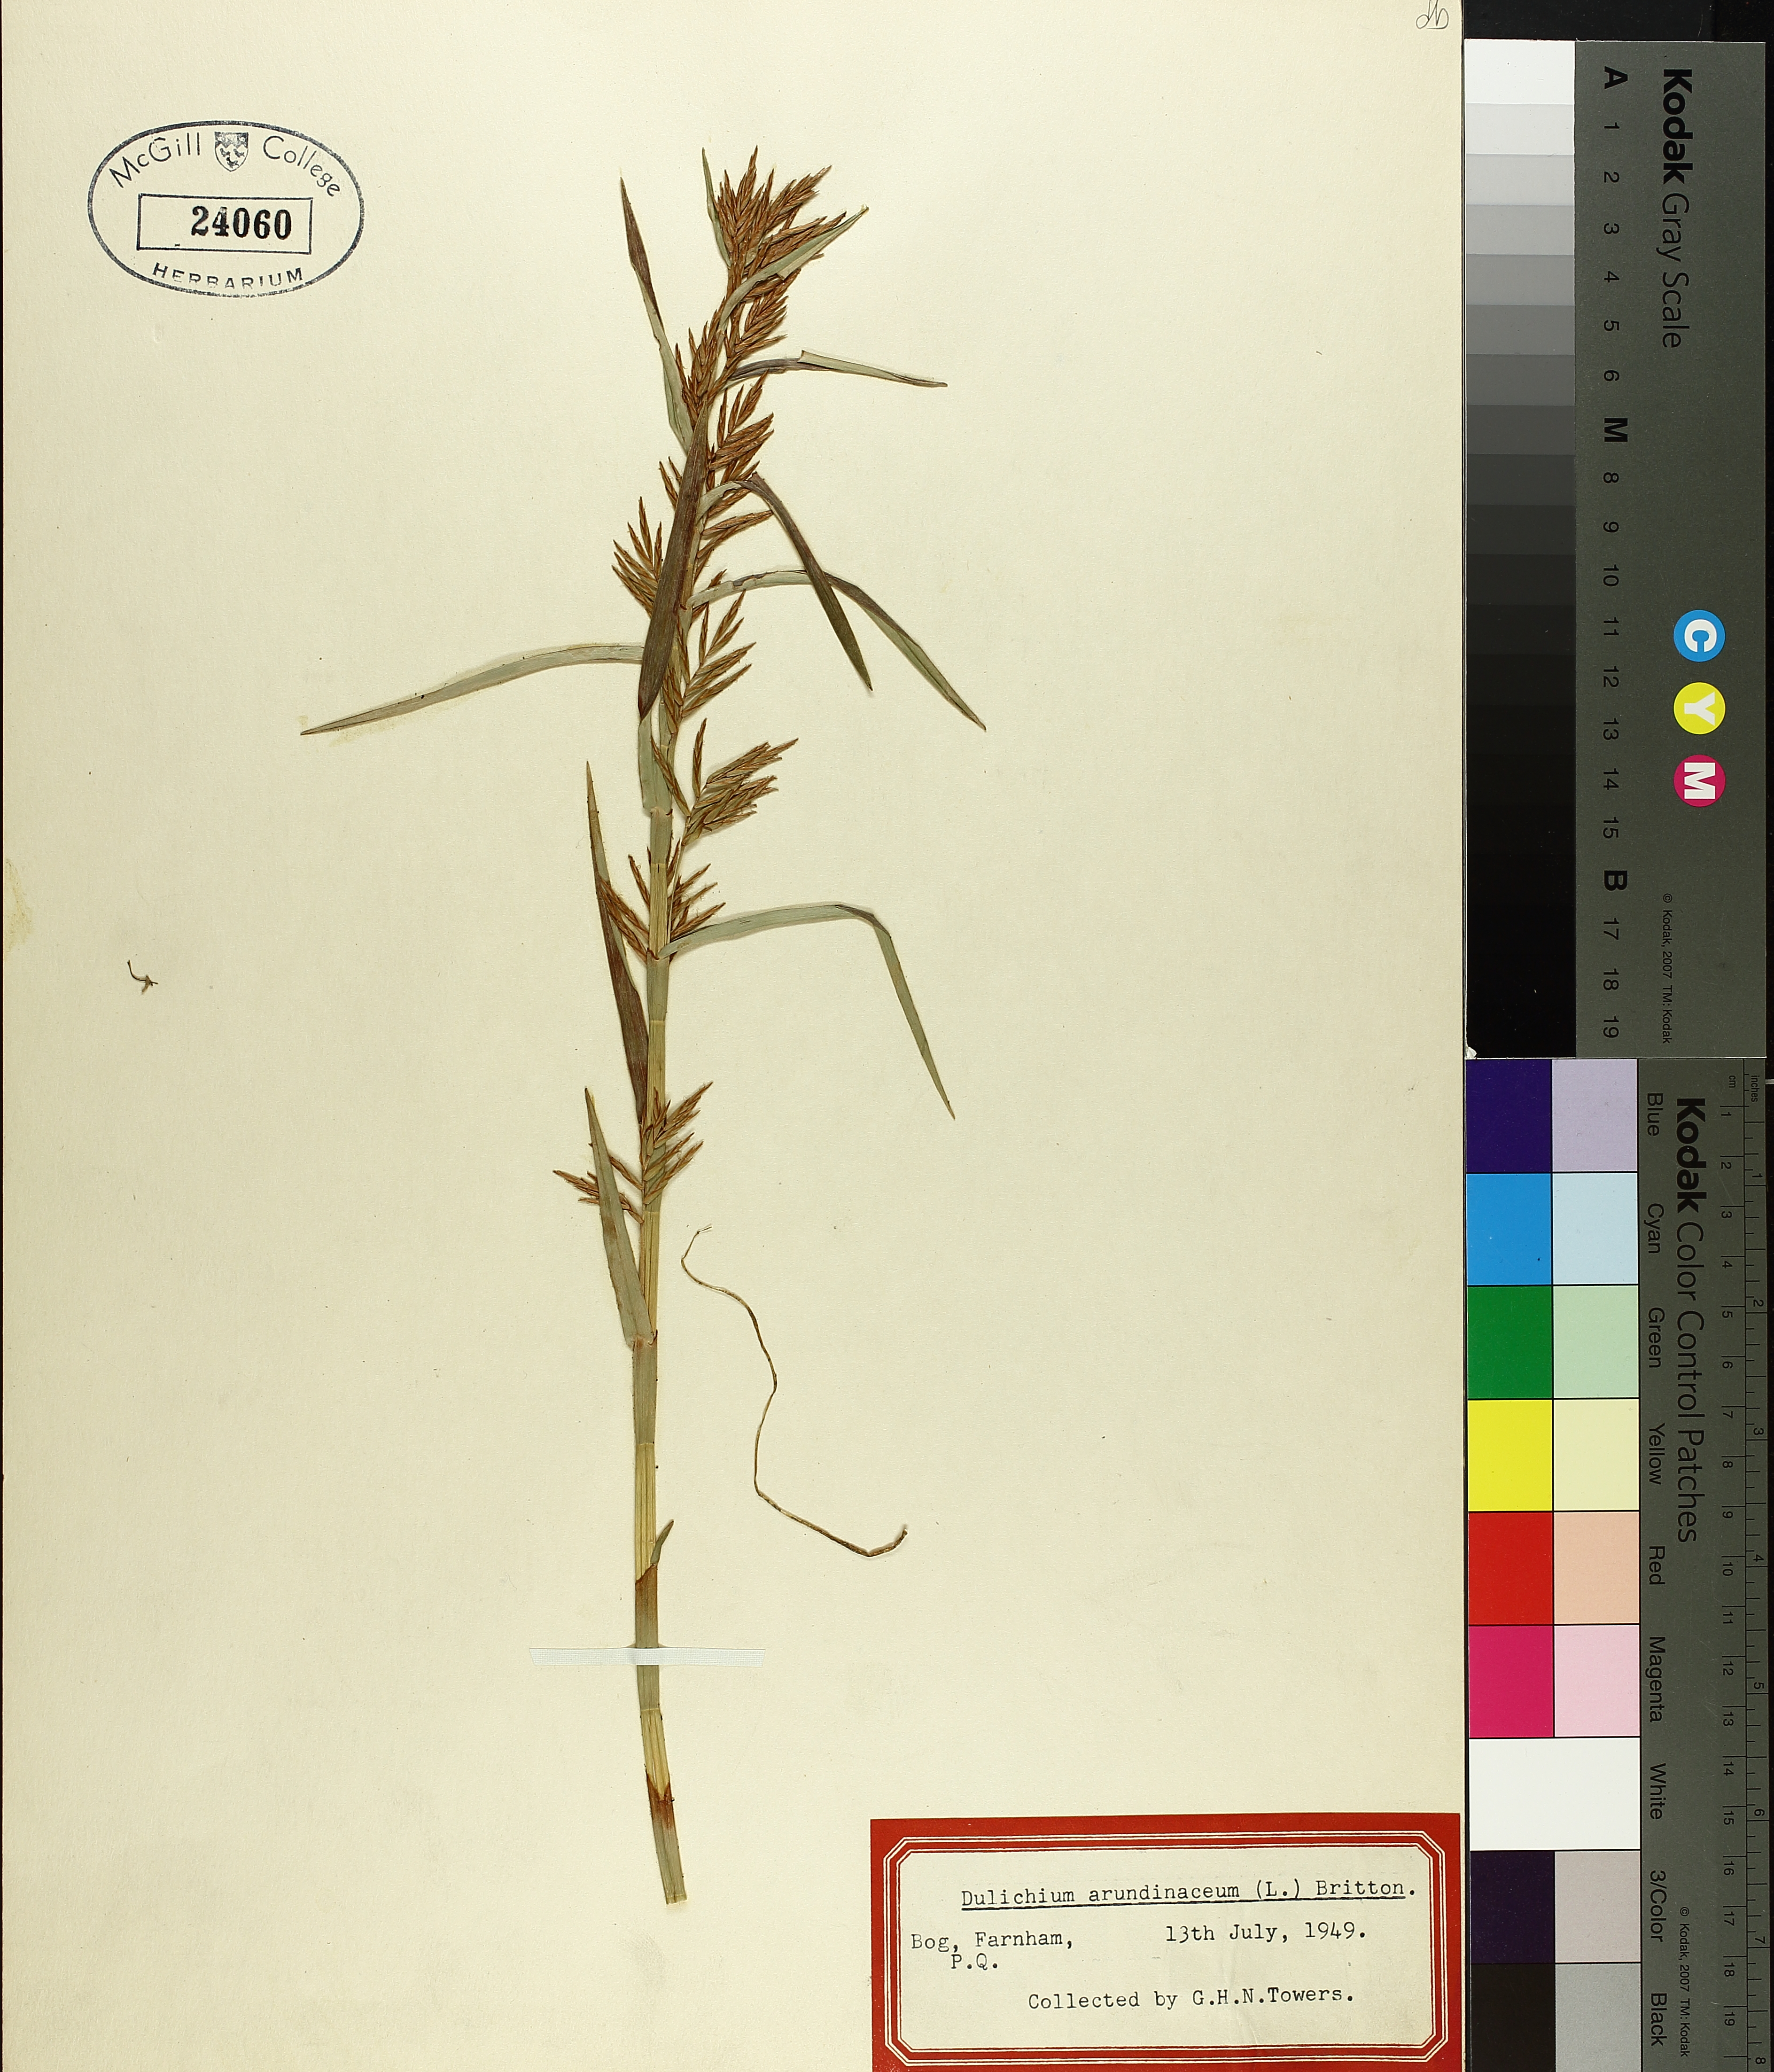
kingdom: Plantae
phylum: Tracheophyta
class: Liliopsida
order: Poales
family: Cyperaceae
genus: Dulichium
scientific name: Dulichium arundinaceum
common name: Three-way sedge
